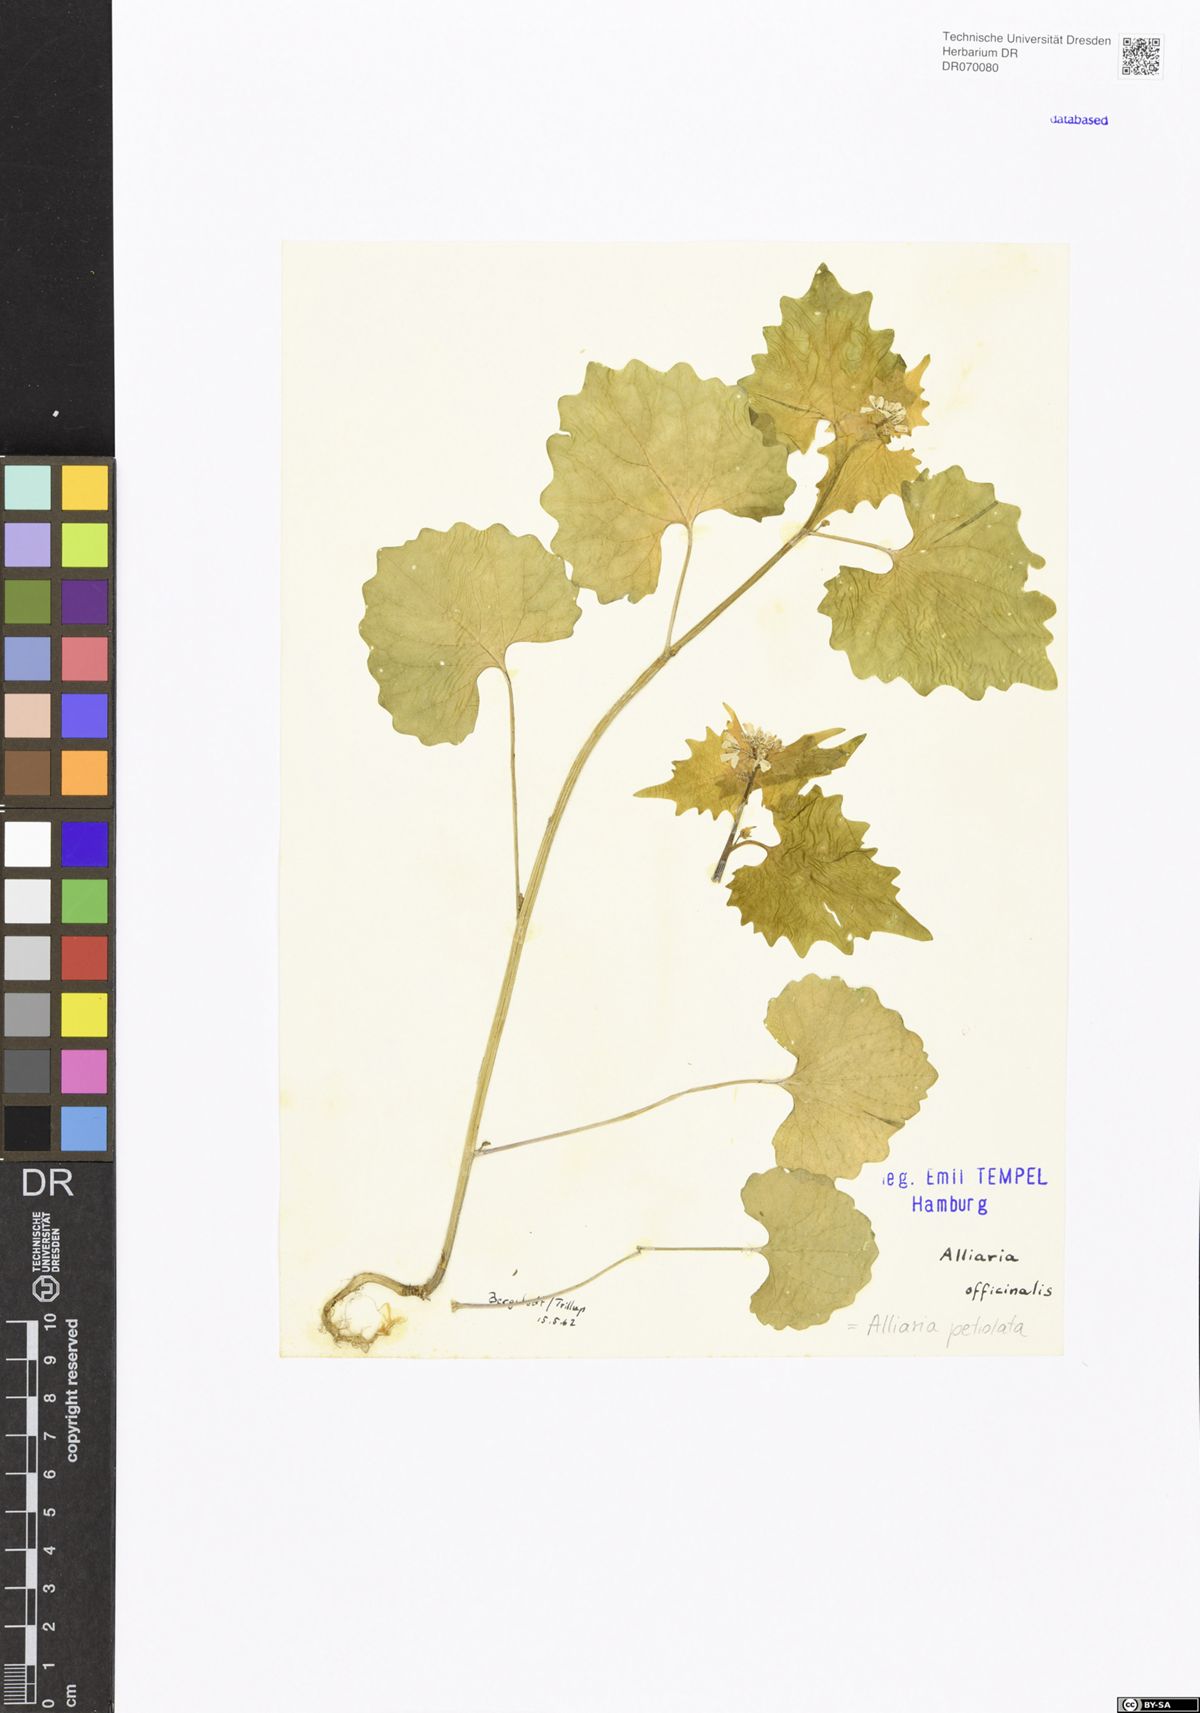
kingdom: Plantae
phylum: Tracheophyta
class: Magnoliopsida
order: Brassicales
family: Brassicaceae
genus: Alliaria
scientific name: Alliaria petiolata
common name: Garlic mustard
